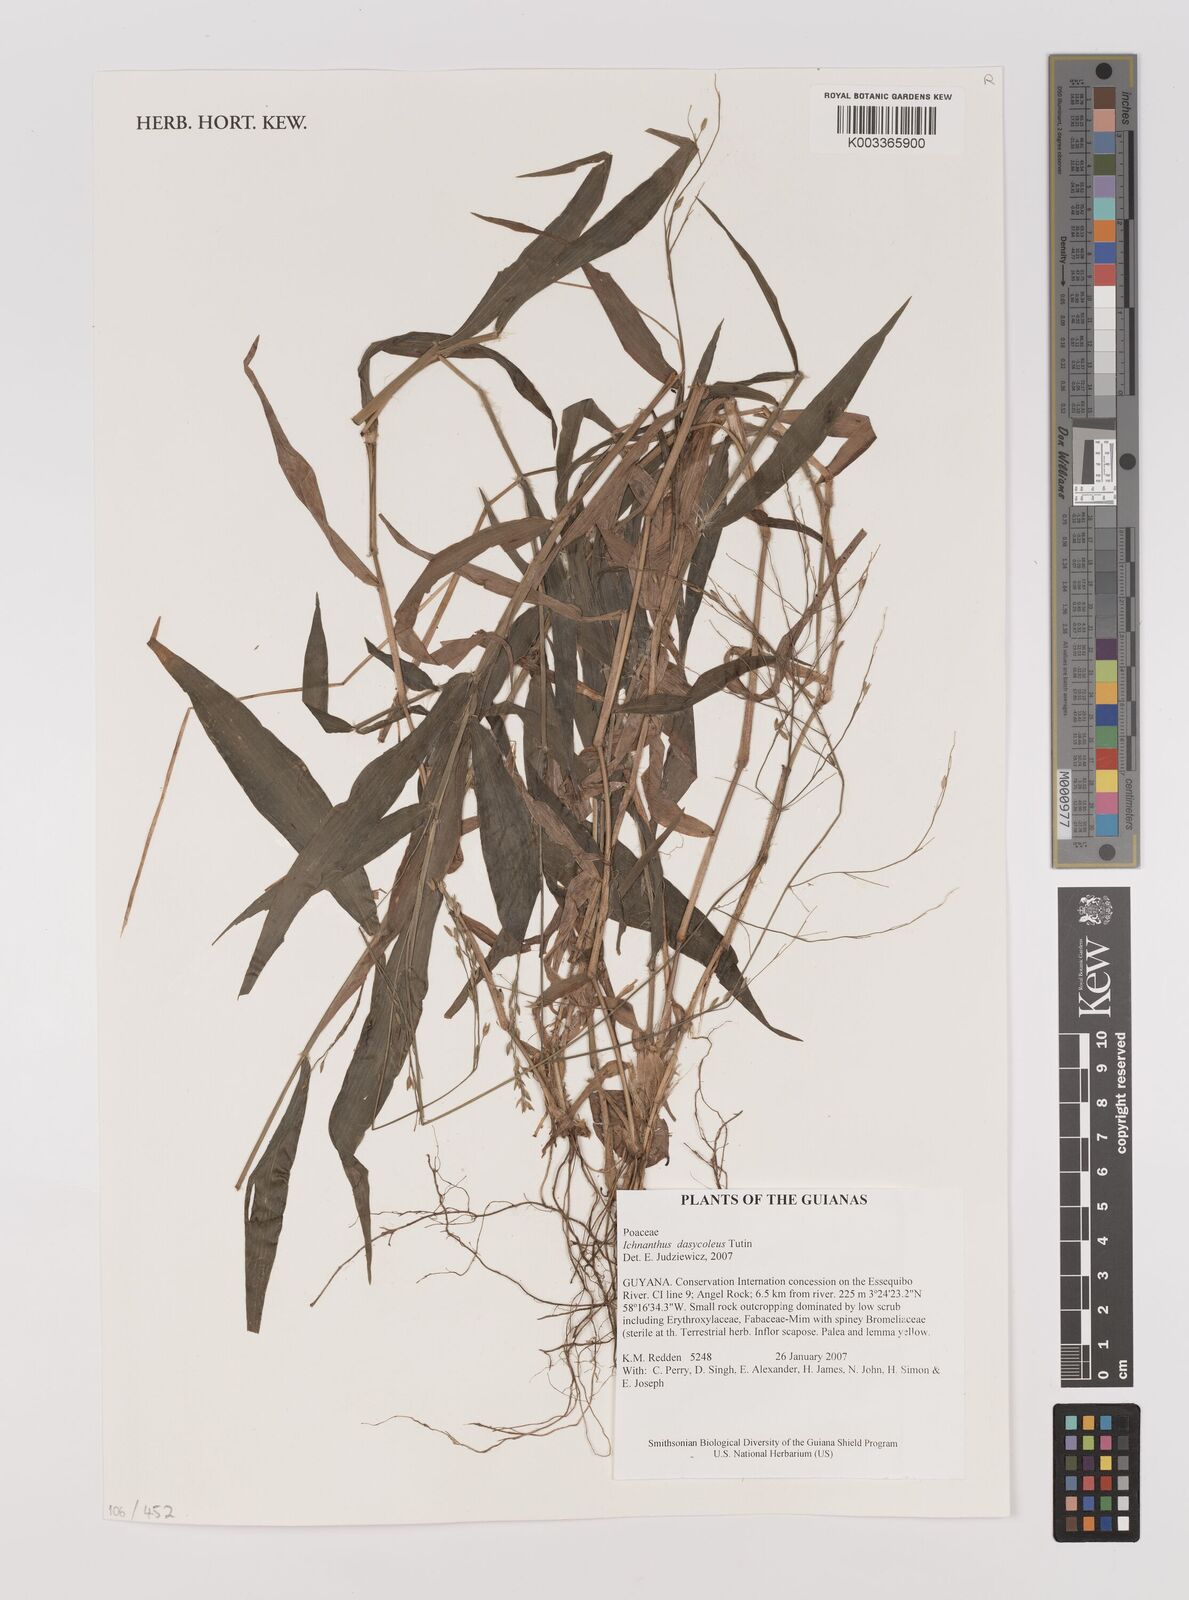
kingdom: Plantae
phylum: Tracheophyta
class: Liliopsida
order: Poales
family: Poaceae
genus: Ichnanthus
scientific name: Ichnanthus dasycoleus
